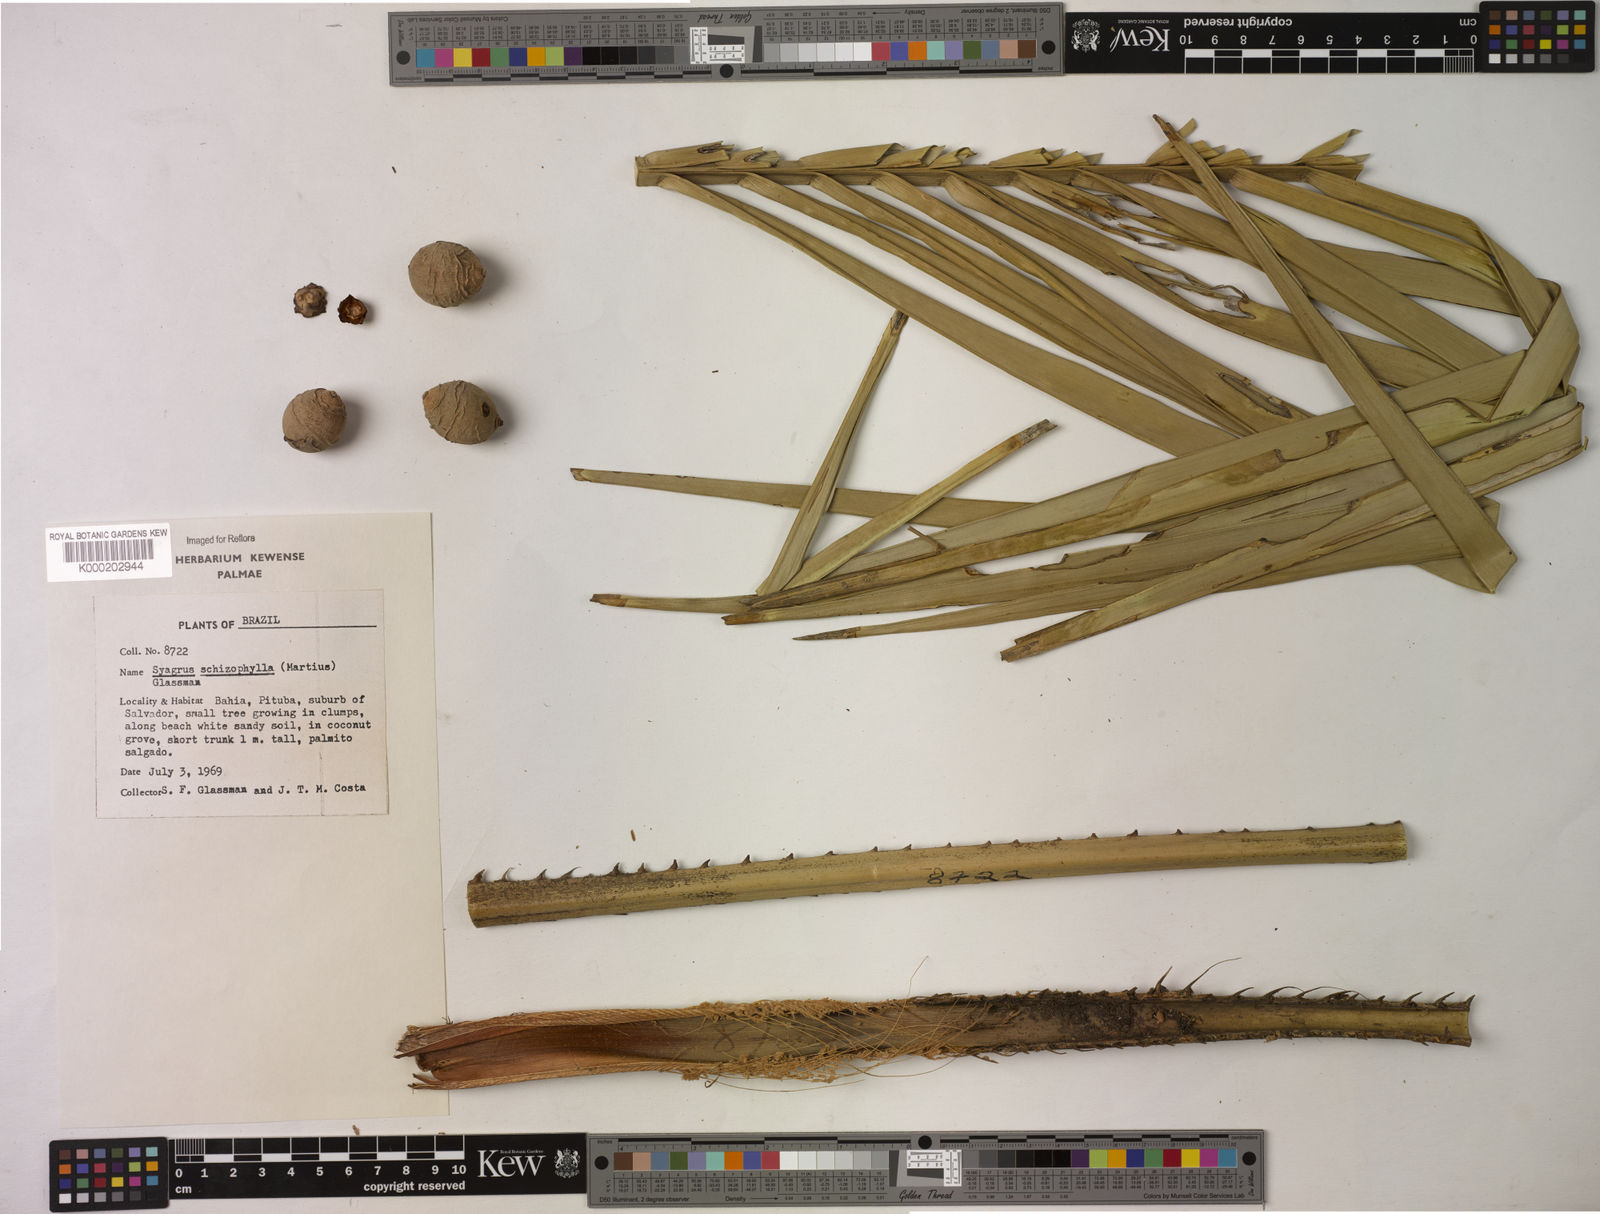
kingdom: Plantae
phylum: Tracheophyta
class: Liliopsida
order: Arecales
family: Arecaceae
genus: Syagrus
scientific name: Syagrus schizophylla
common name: Arikury palm
